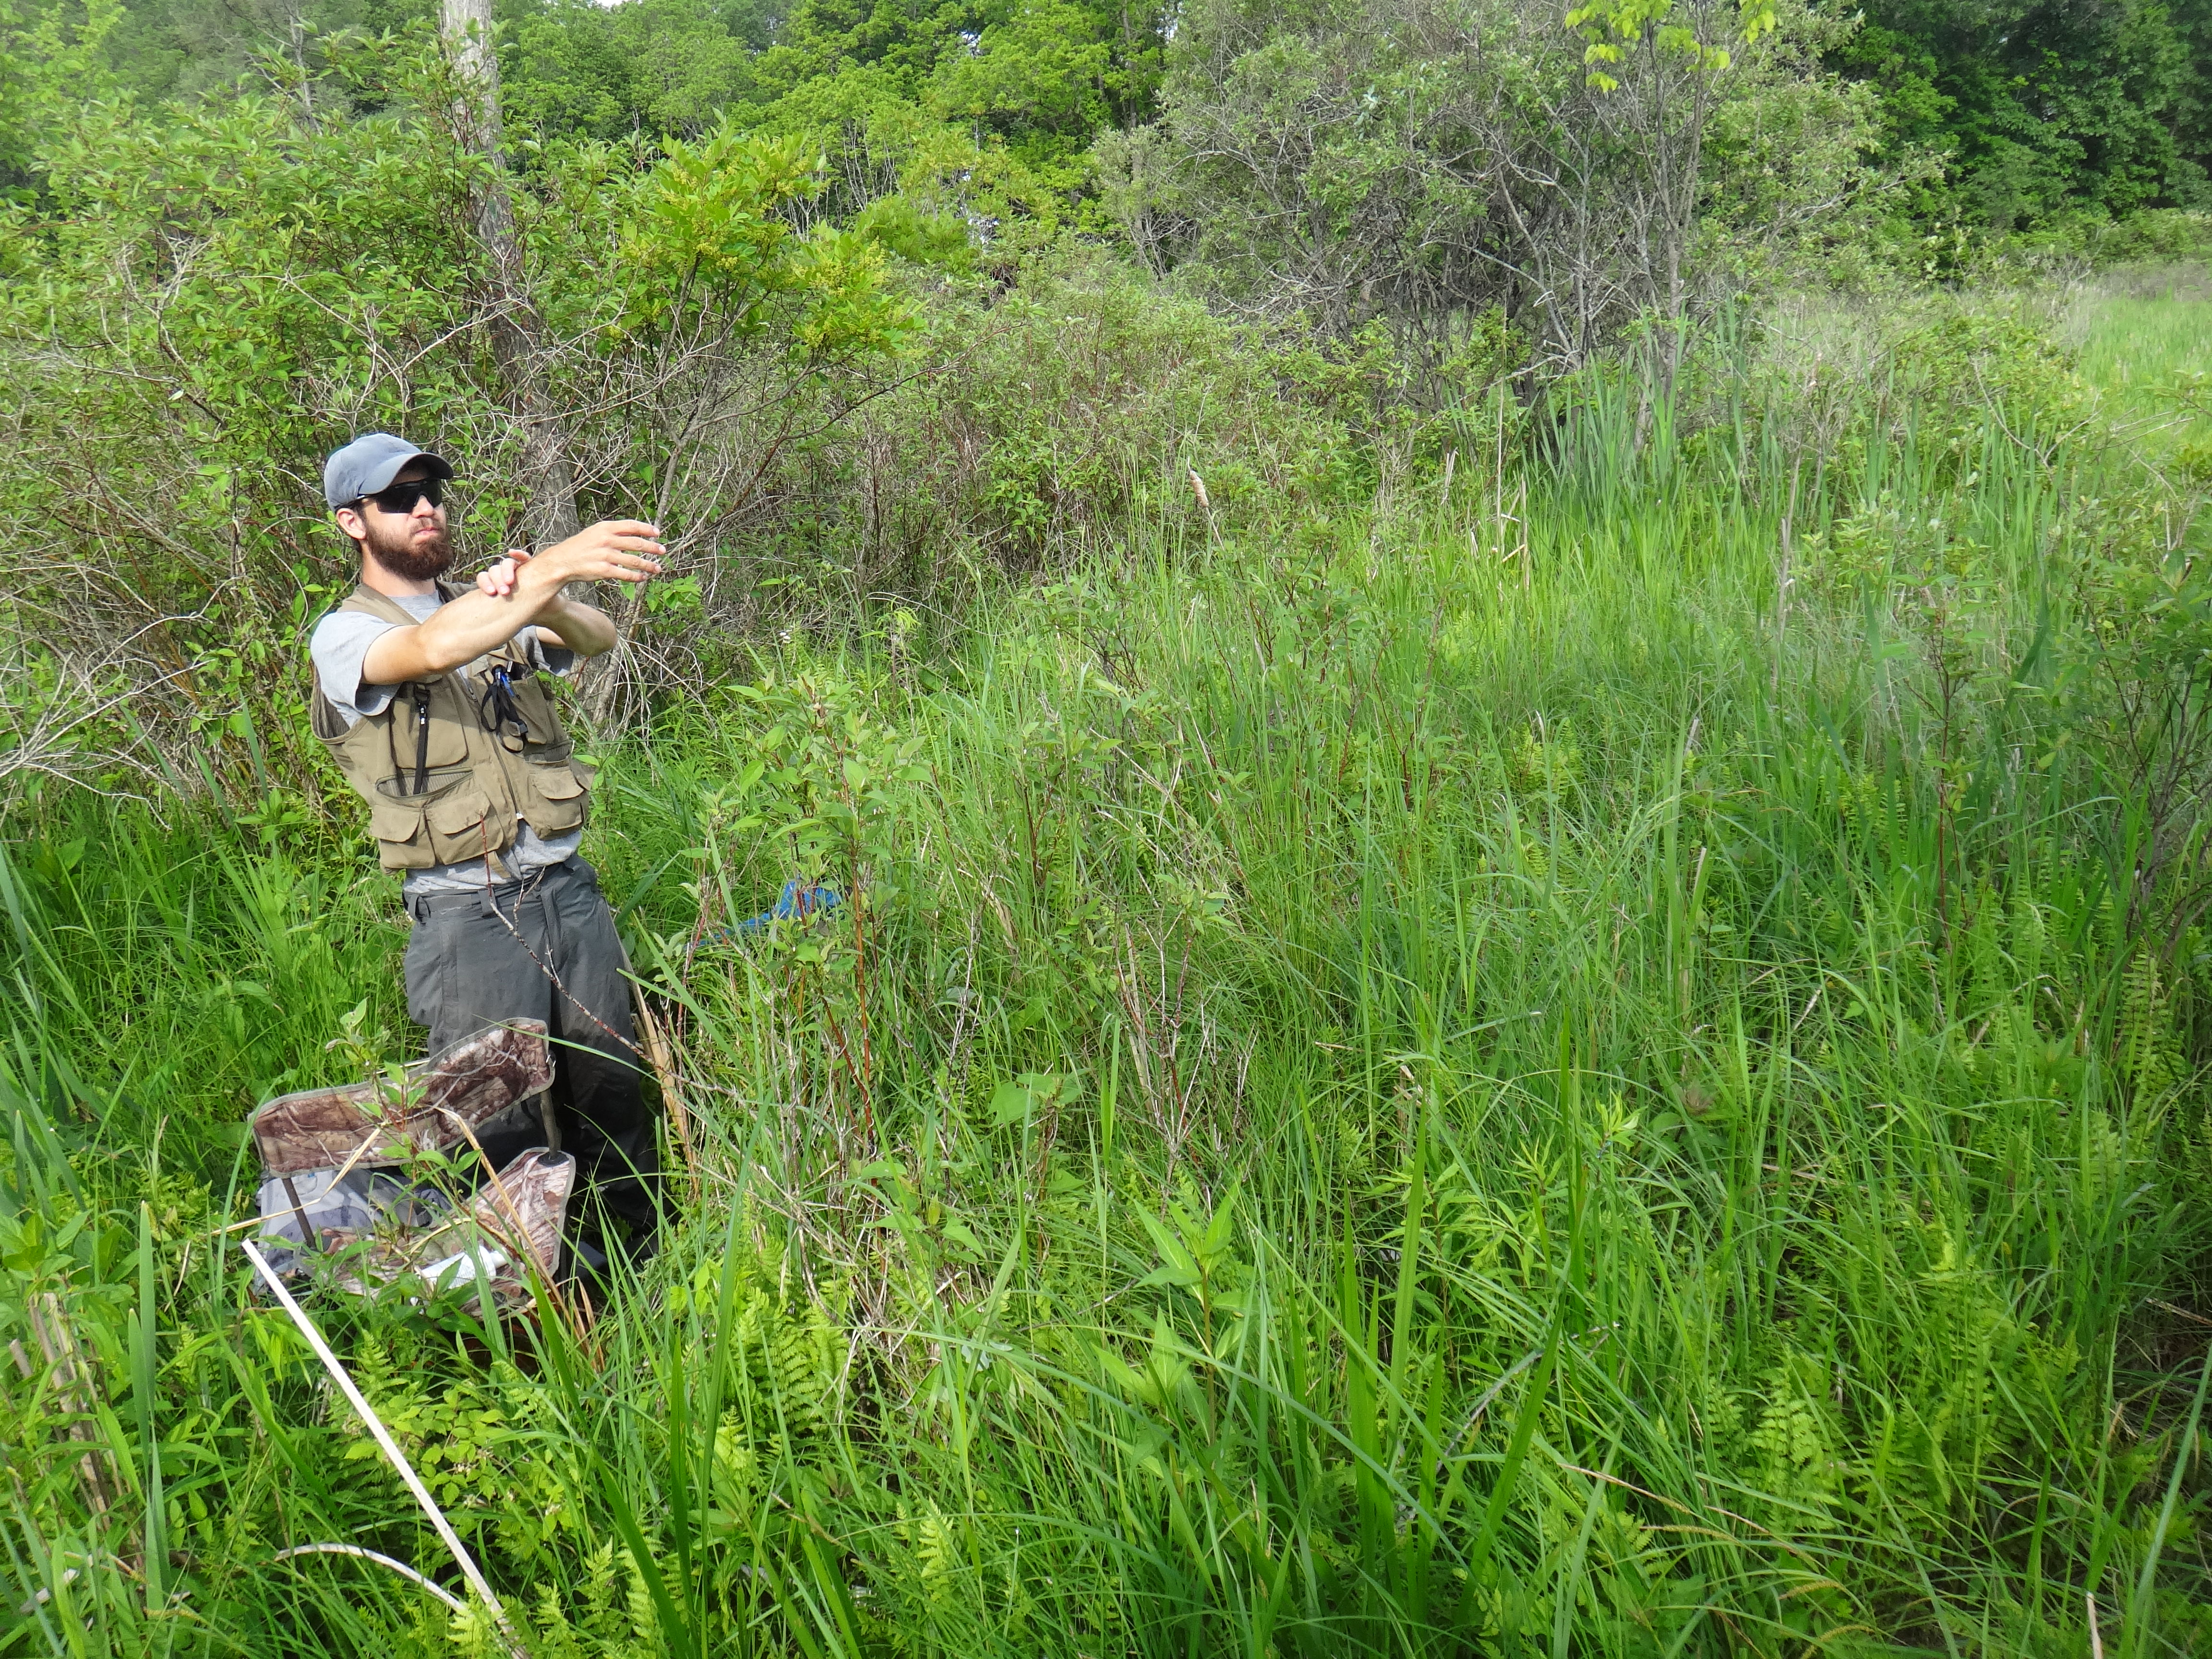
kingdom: Plantae
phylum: Tracheophyta
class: Liliopsida
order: Poales
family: Poaceae
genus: Agrostis
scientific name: Agrostis gigantea
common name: Black bent
